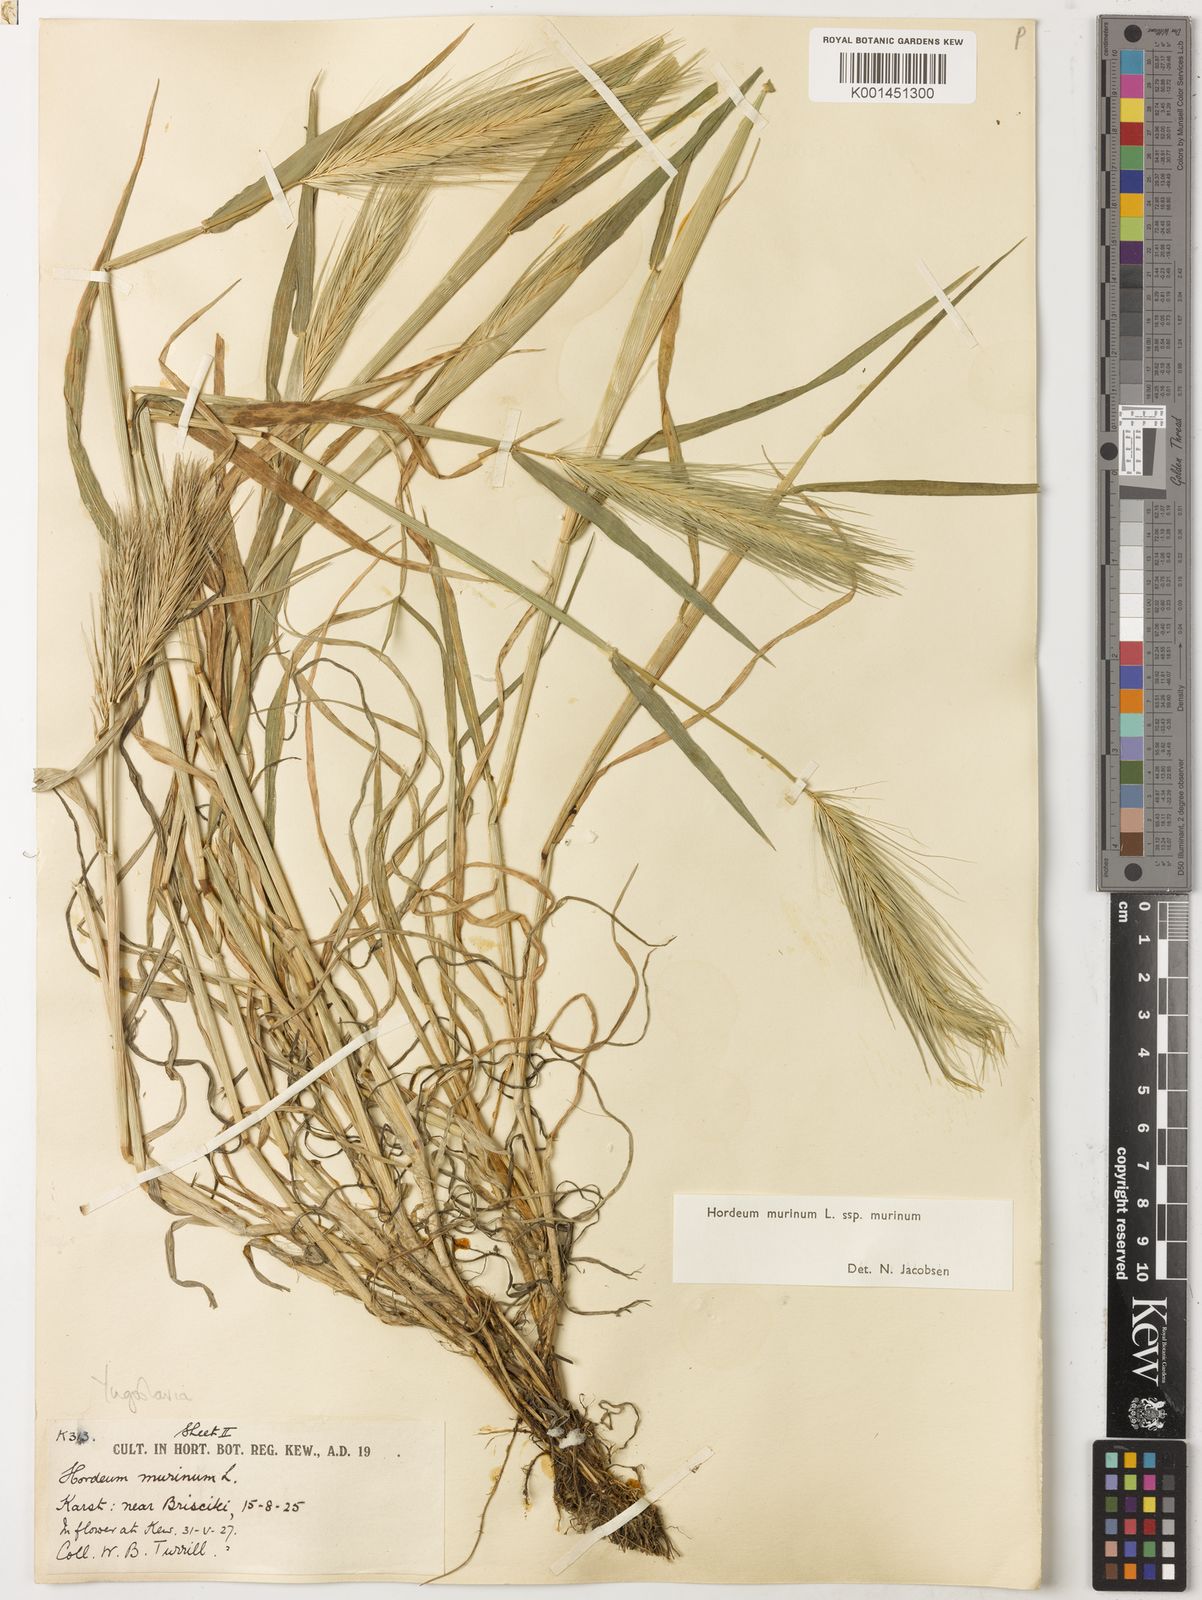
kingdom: Plantae
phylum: Tracheophyta
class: Liliopsida
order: Poales
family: Poaceae
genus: Hordeum
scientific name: Hordeum murinum
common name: Wall barley
